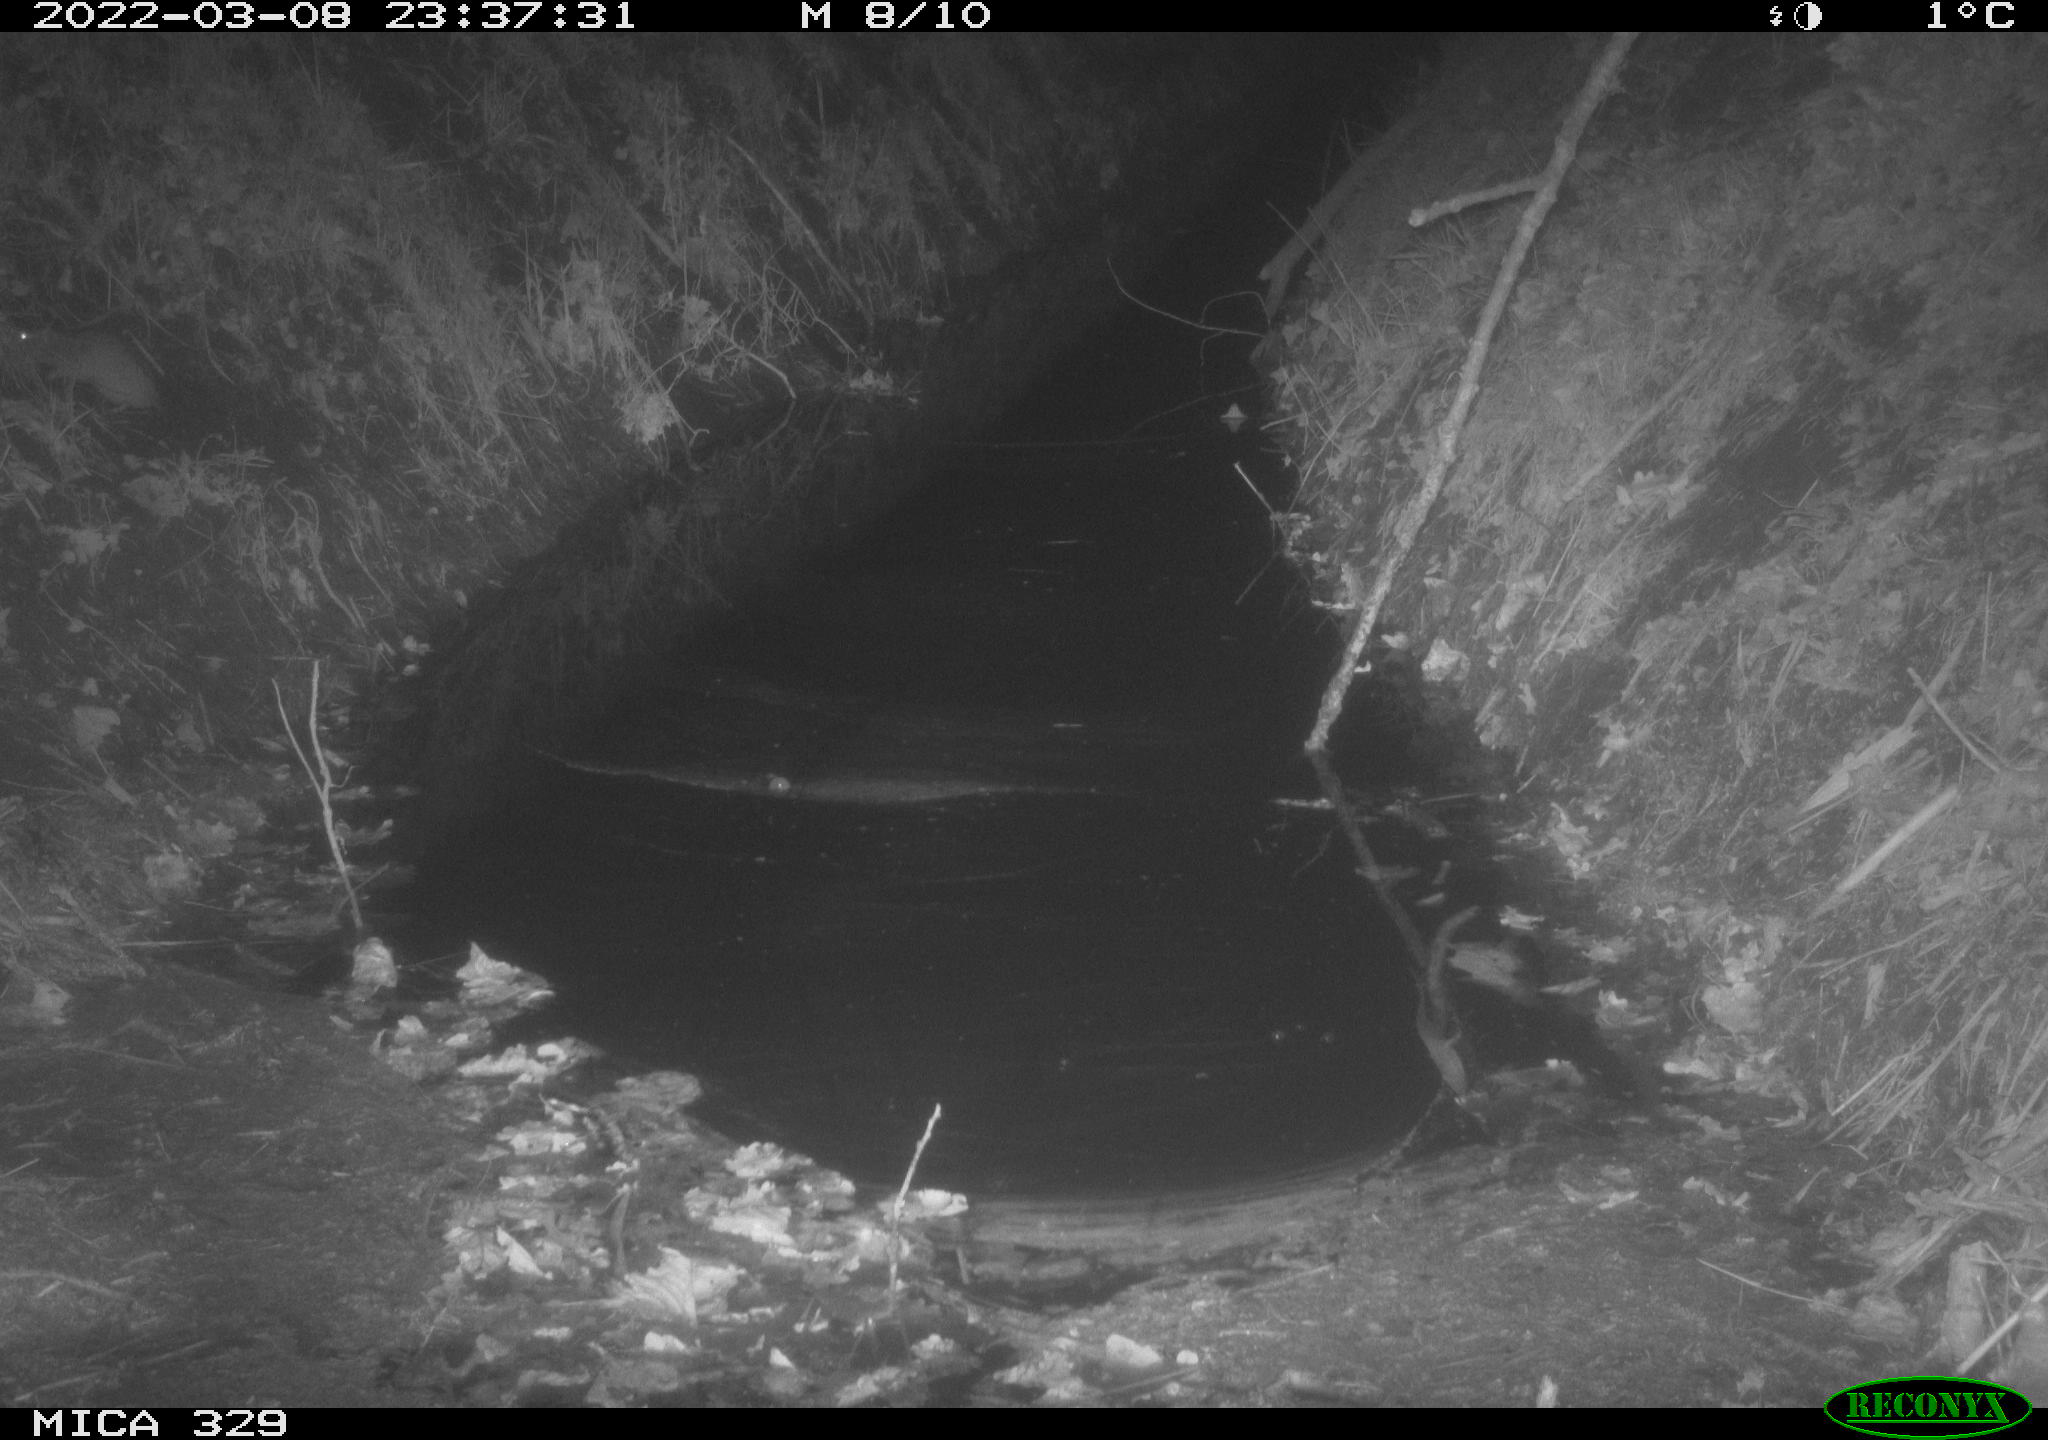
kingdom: Animalia
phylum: Chordata
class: Mammalia
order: Rodentia
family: Muridae
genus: Rattus
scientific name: Rattus norvegicus
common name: Brown rat
